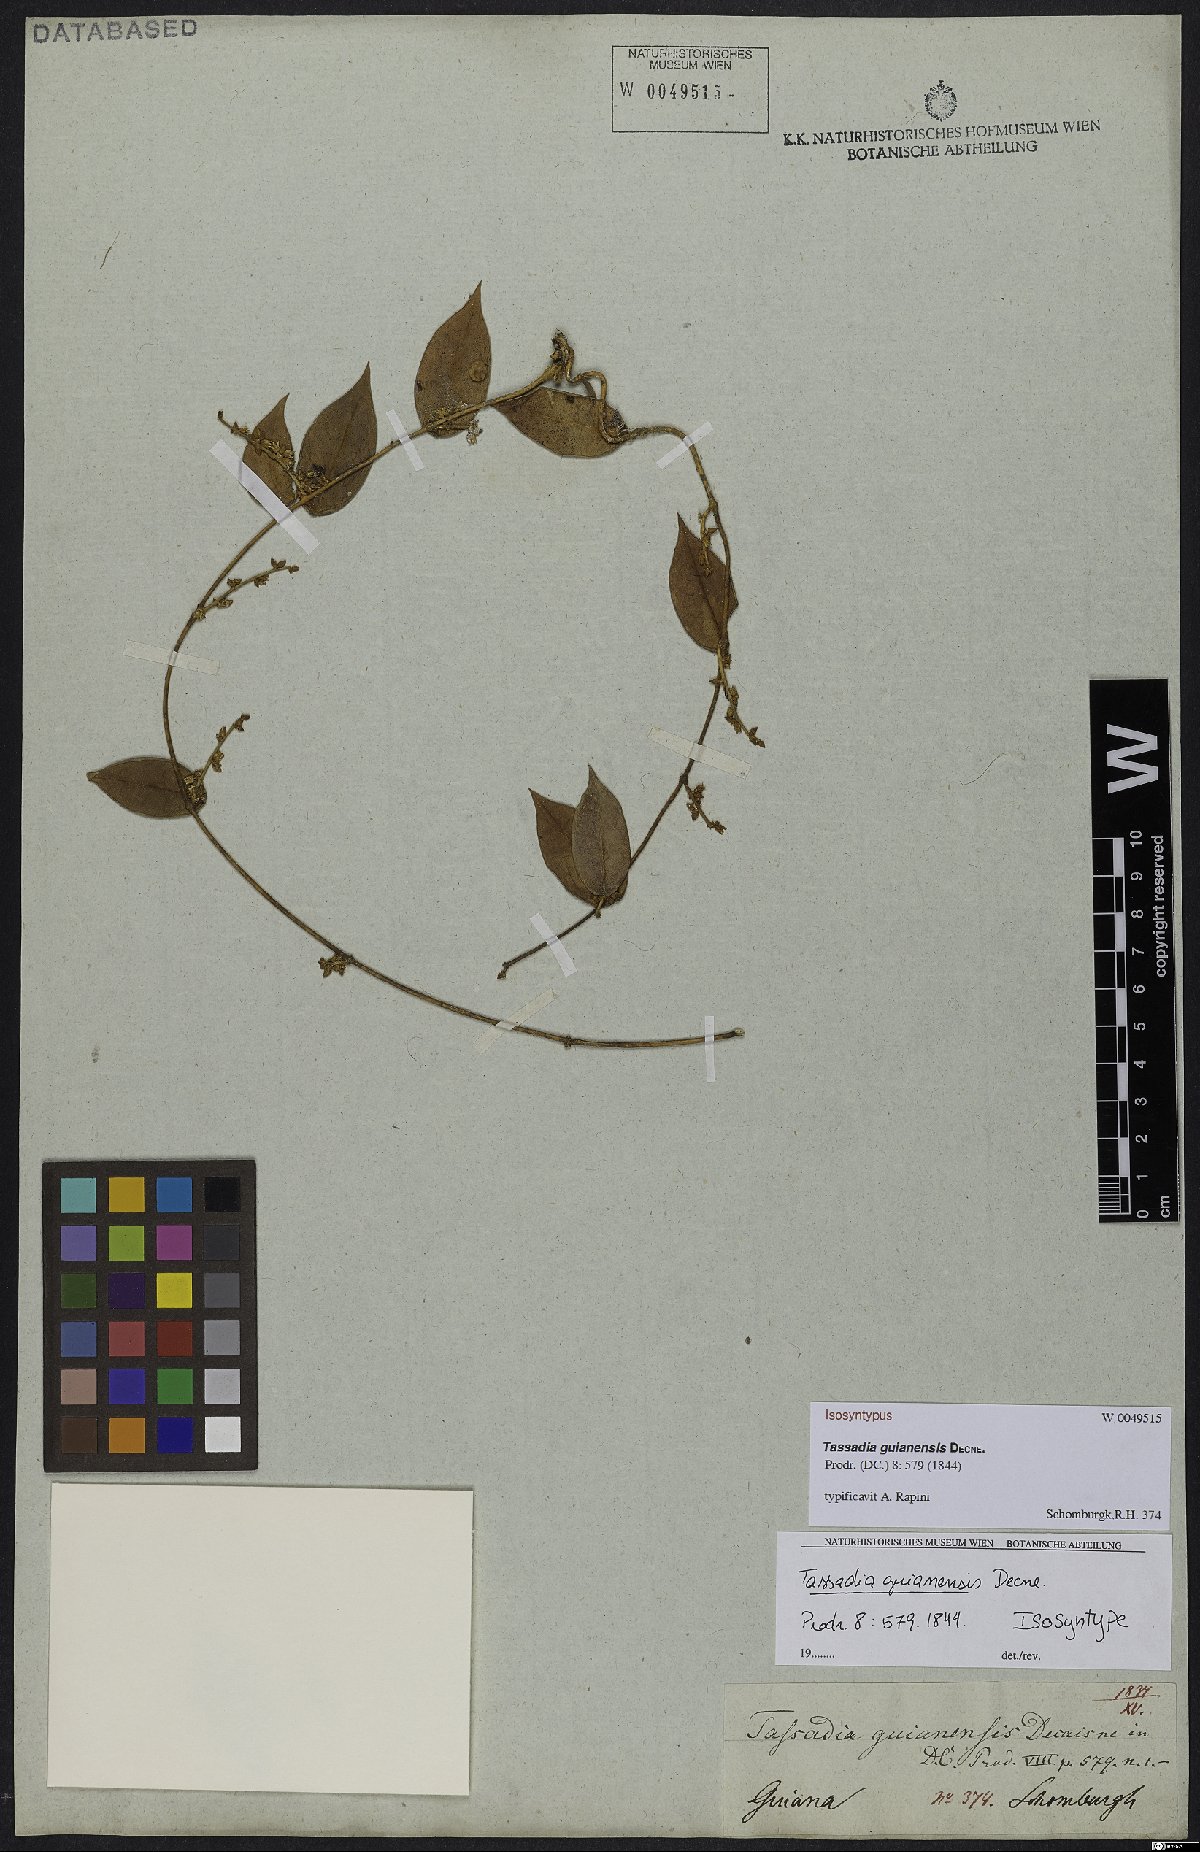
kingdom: Plantae
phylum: Tracheophyta
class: Magnoliopsida
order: Gentianales
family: Apocynaceae
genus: Tassadia
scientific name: Tassadia guianensis
